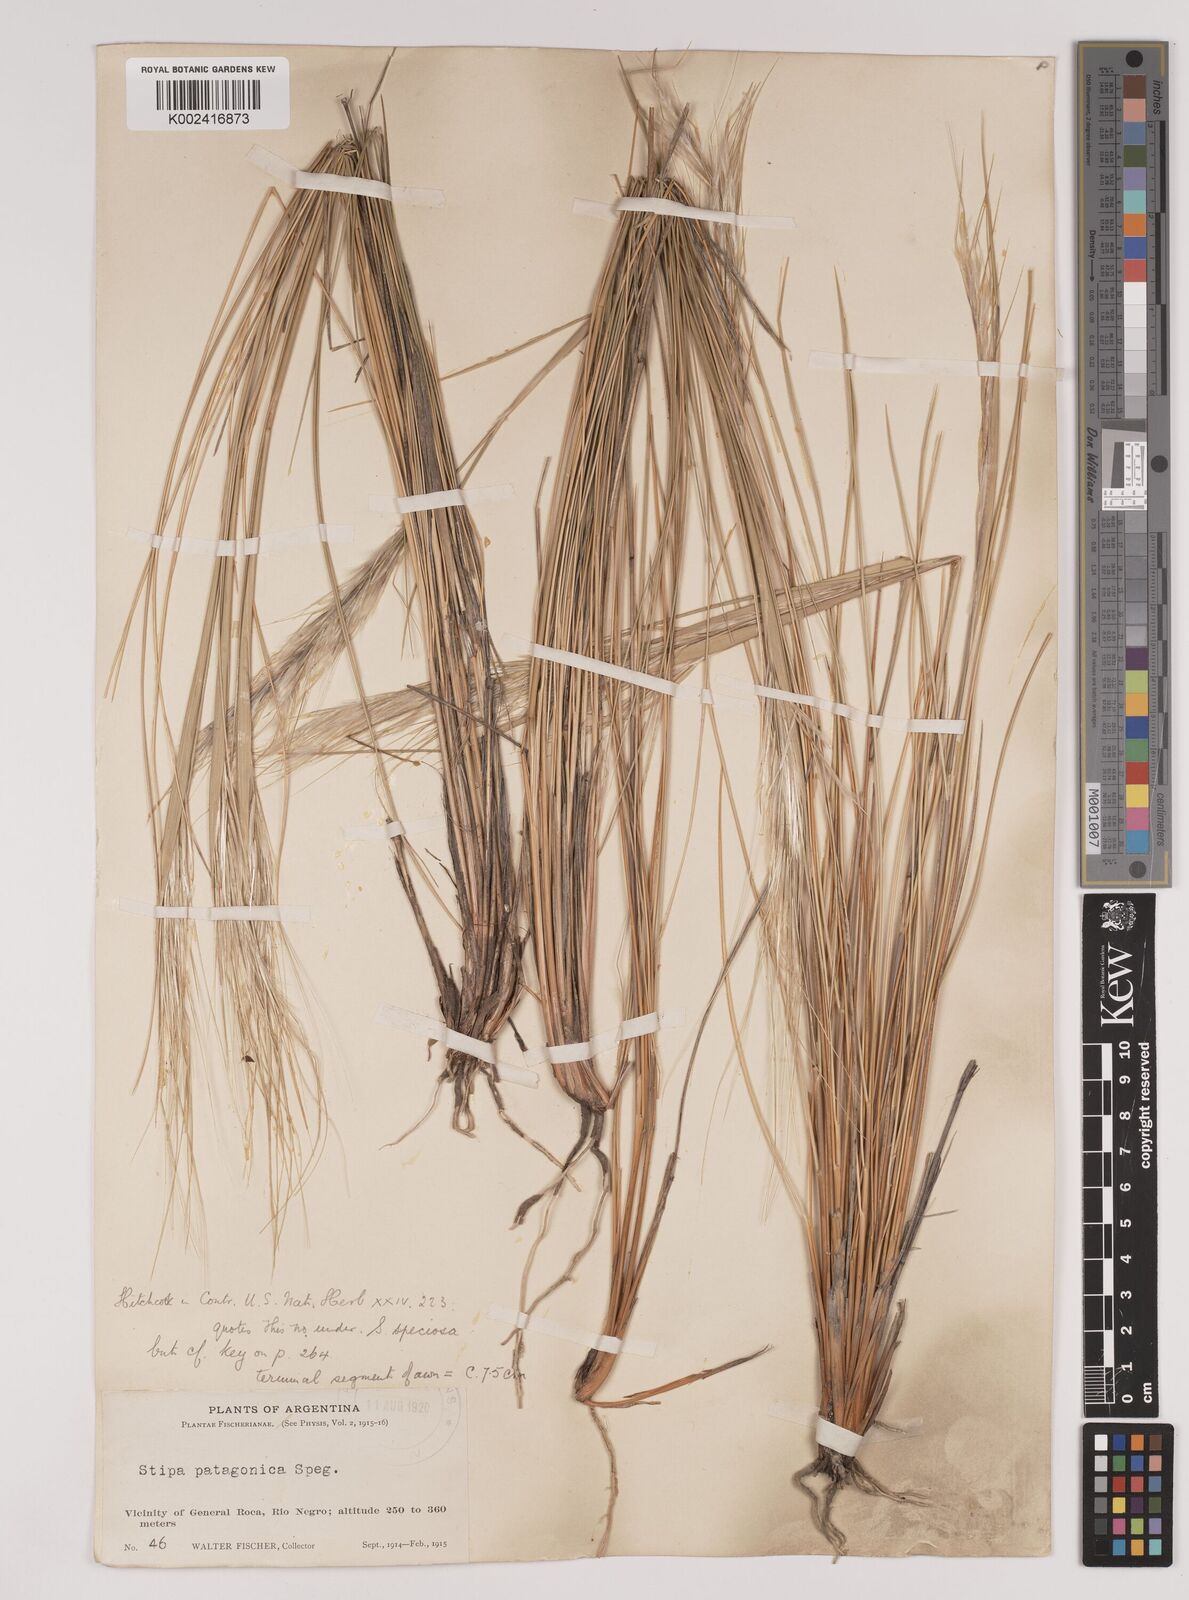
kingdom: Plantae
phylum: Tracheophyta
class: Liliopsida
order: Poales
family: Poaceae
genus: Pappostipa
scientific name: Pappostipa patagonica
